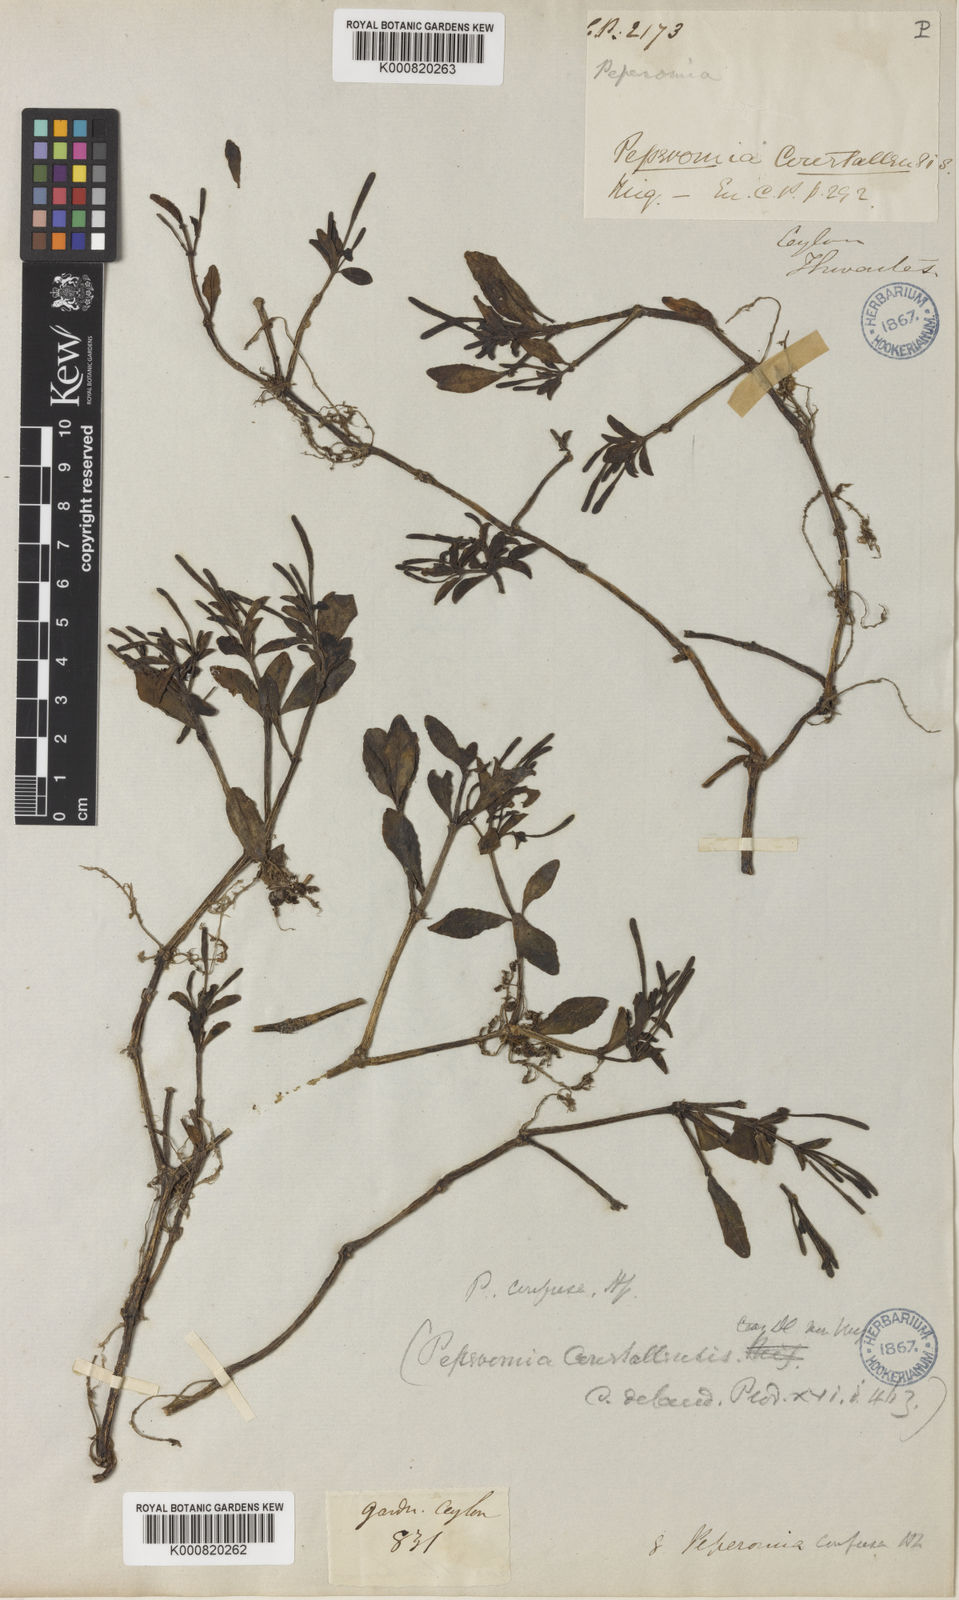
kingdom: Plantae
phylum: Tracheophyta
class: Magnoliopsida
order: Piperales
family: Piperaceae
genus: Peperomia
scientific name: Peperomia portulacoides
